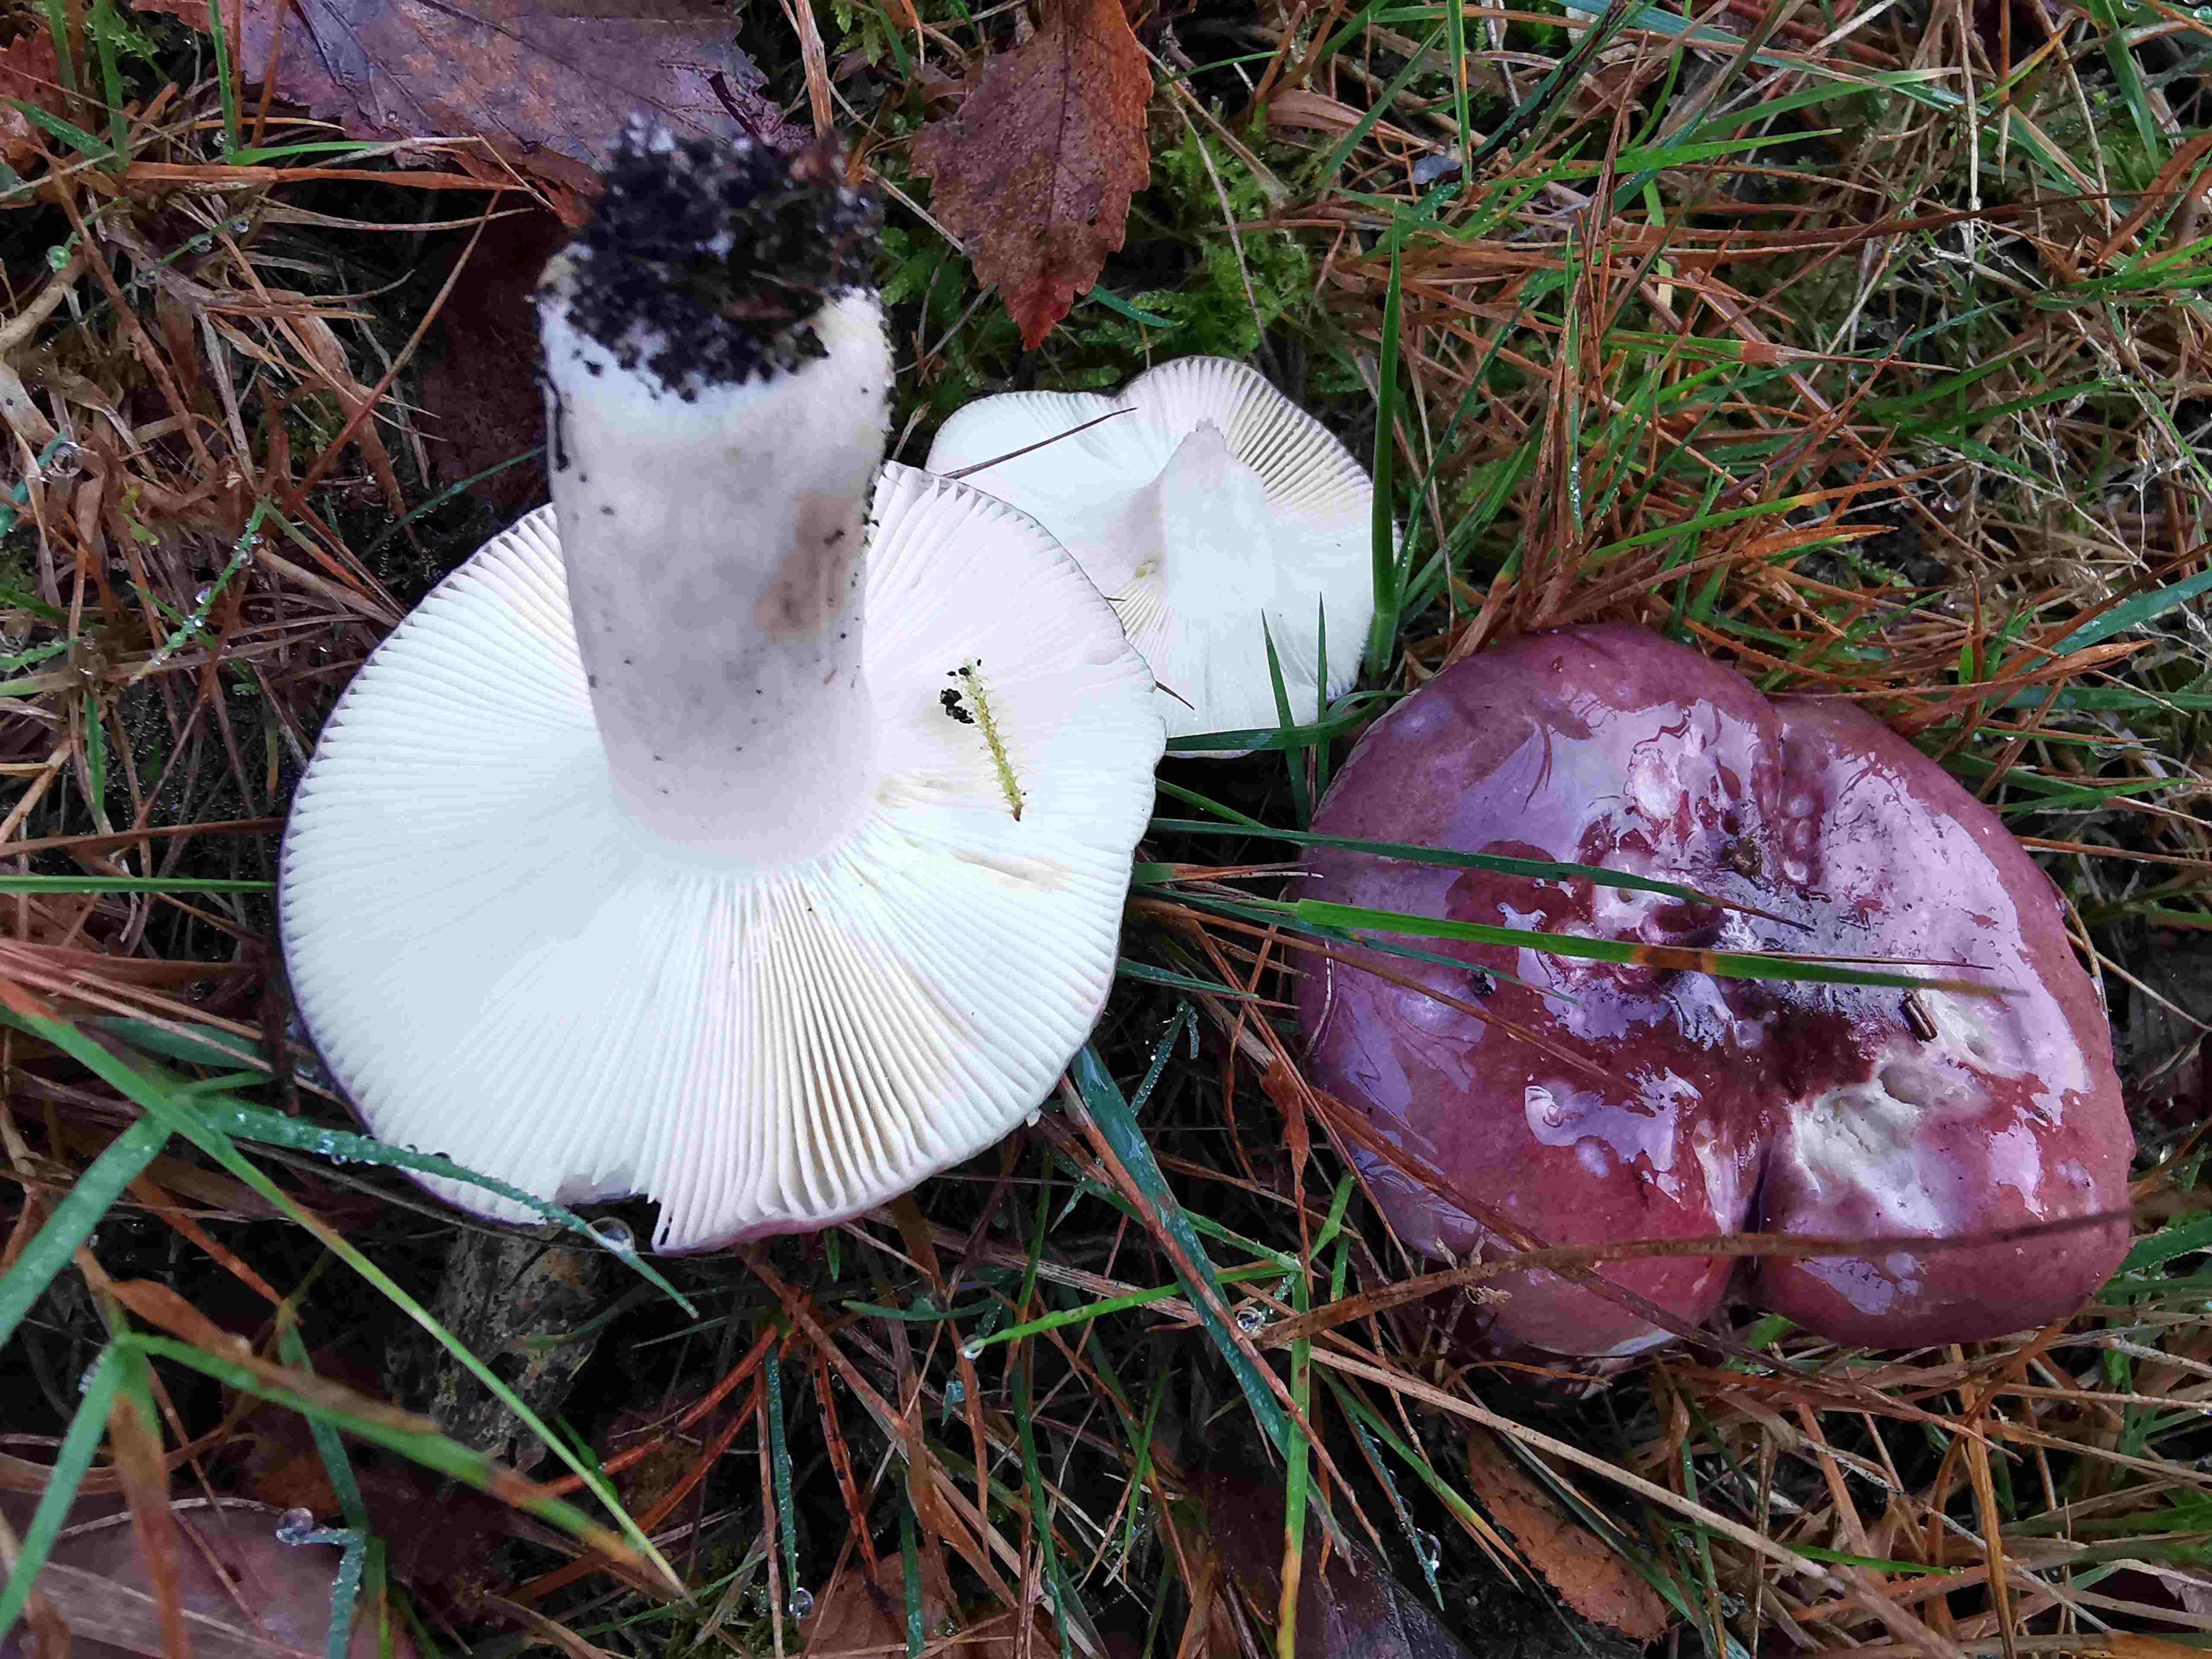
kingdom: Fungi
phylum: Basidiomycota
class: Agaricomycetes
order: Russulales
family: Russulaceae
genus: Russula
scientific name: Russula sardonia
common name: citronbladet skørhat
